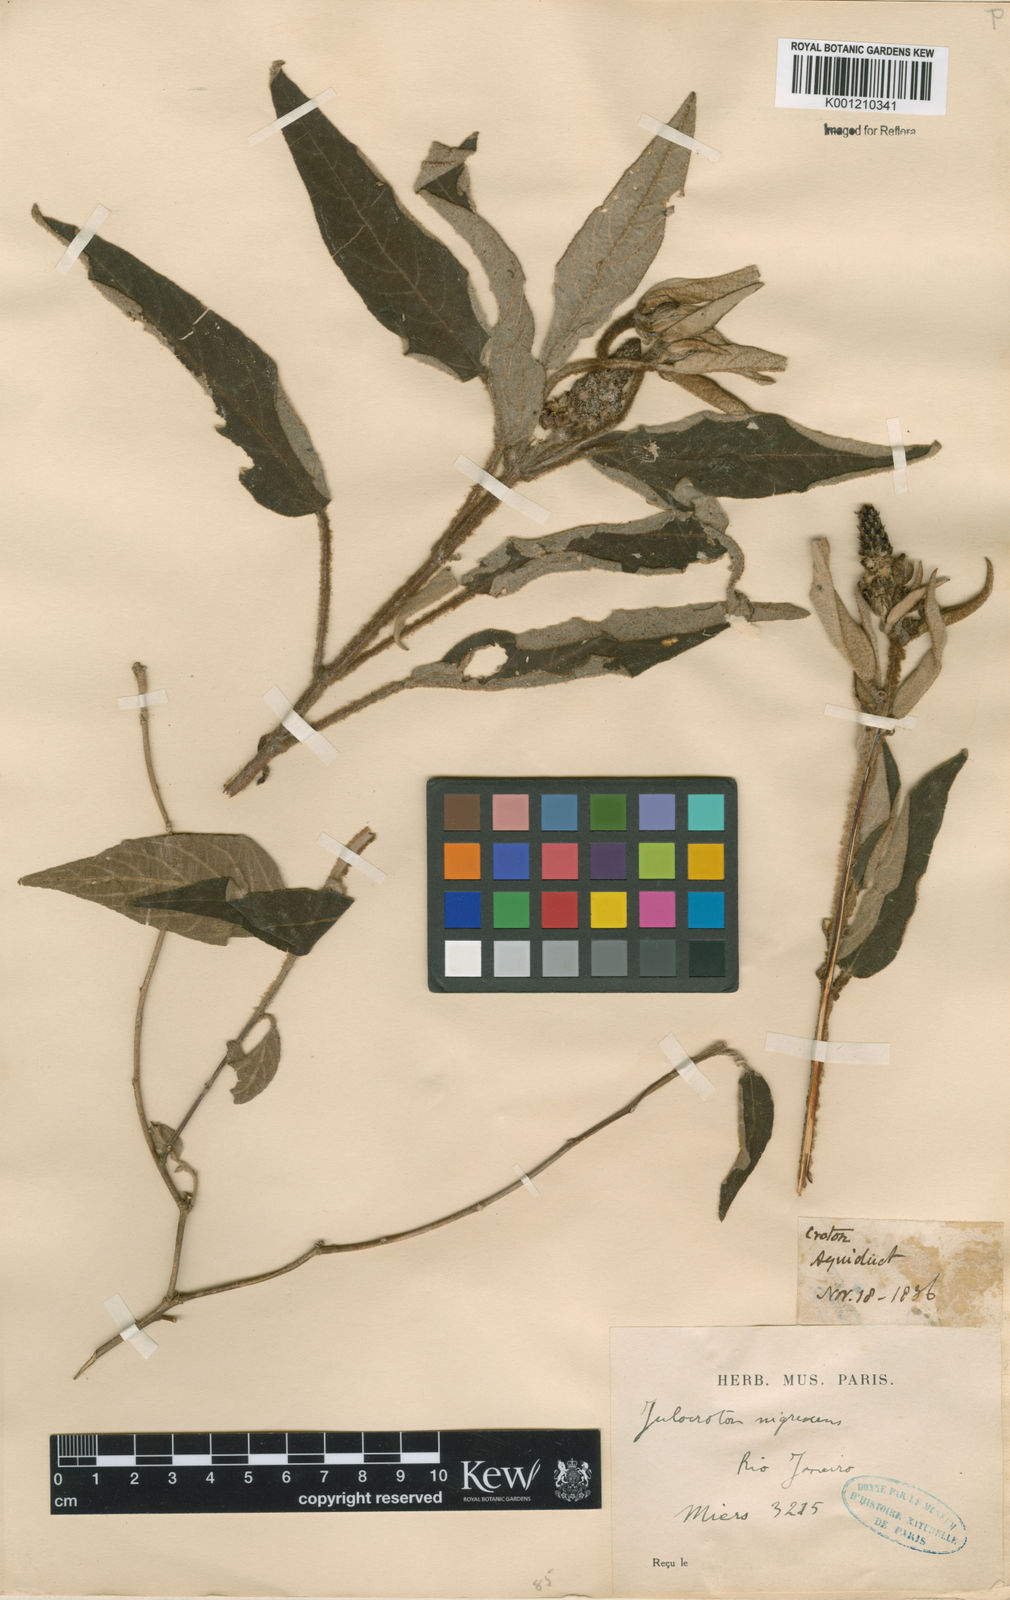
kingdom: Plantae
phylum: Tracheophyta
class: Magnoliopsida
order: Malpighiales
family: Euphorbiaceae
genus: Croton
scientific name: Croton gnaphaloides
